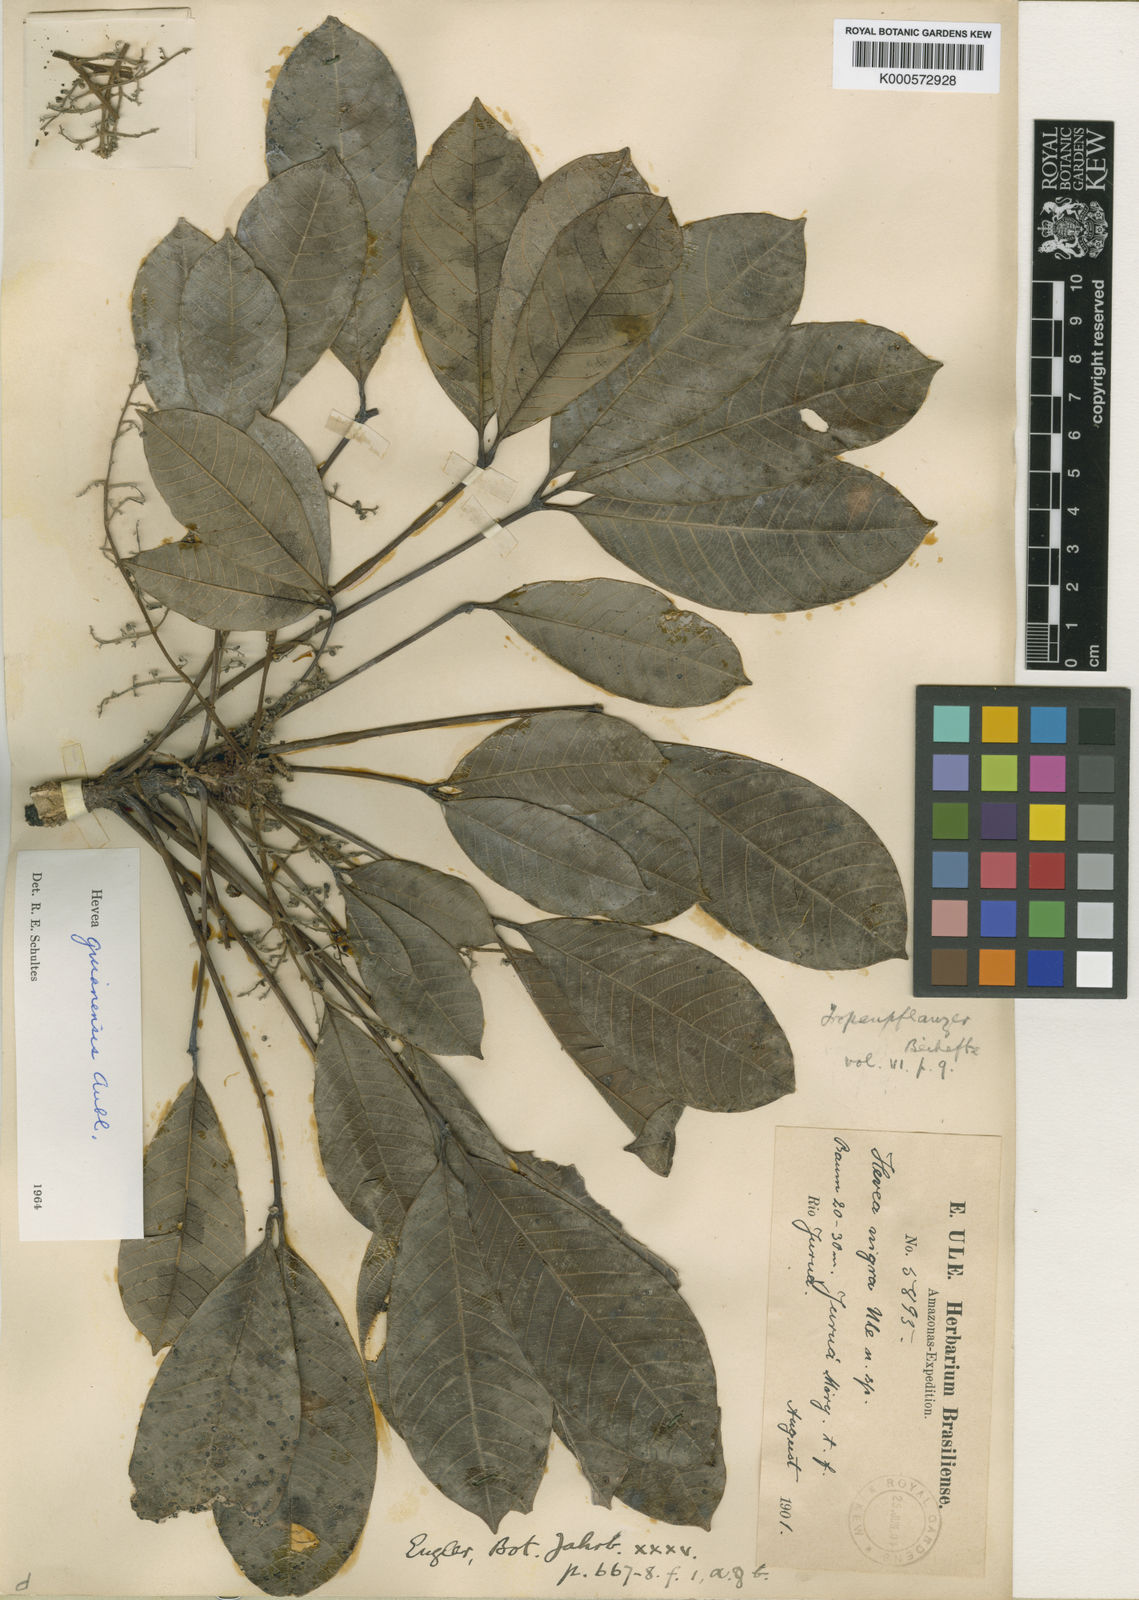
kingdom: Plantae
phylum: Tracheophyta
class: Magnoliopsida
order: Malpighiales
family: Euphorbiaceae
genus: Hevea
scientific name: Hevea guianensis
